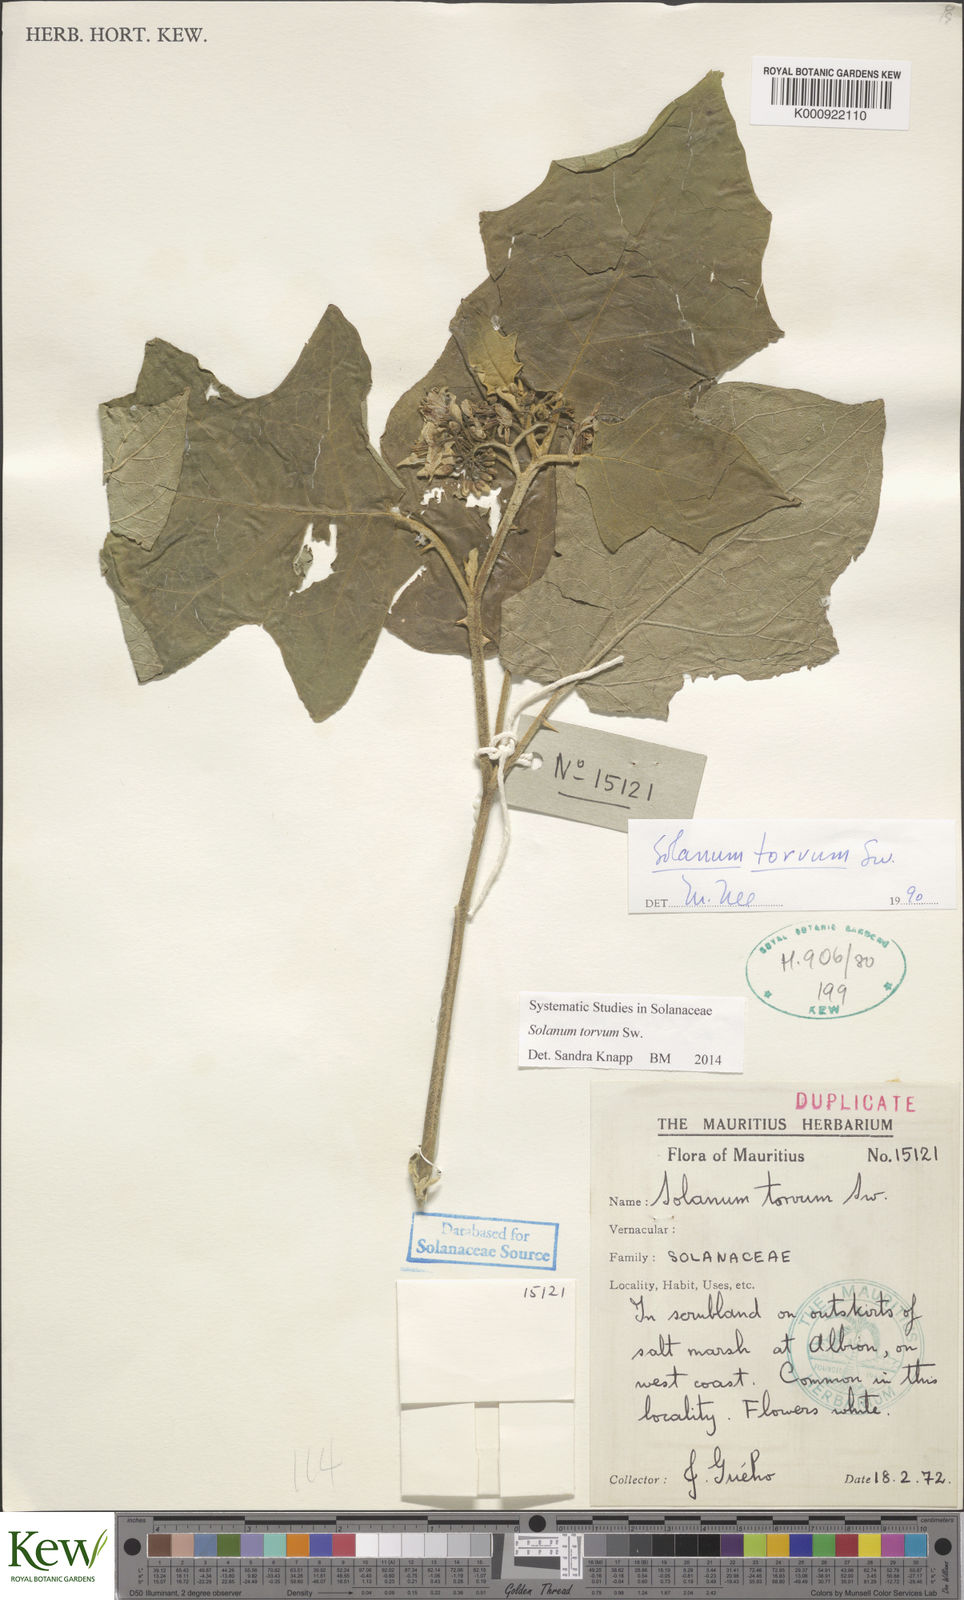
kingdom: Plantae
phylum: Tracheophyta
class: Magnoliopsida
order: Solanales
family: Solanaceae
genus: Solanum
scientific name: Solanum torvum
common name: Turkey berry
